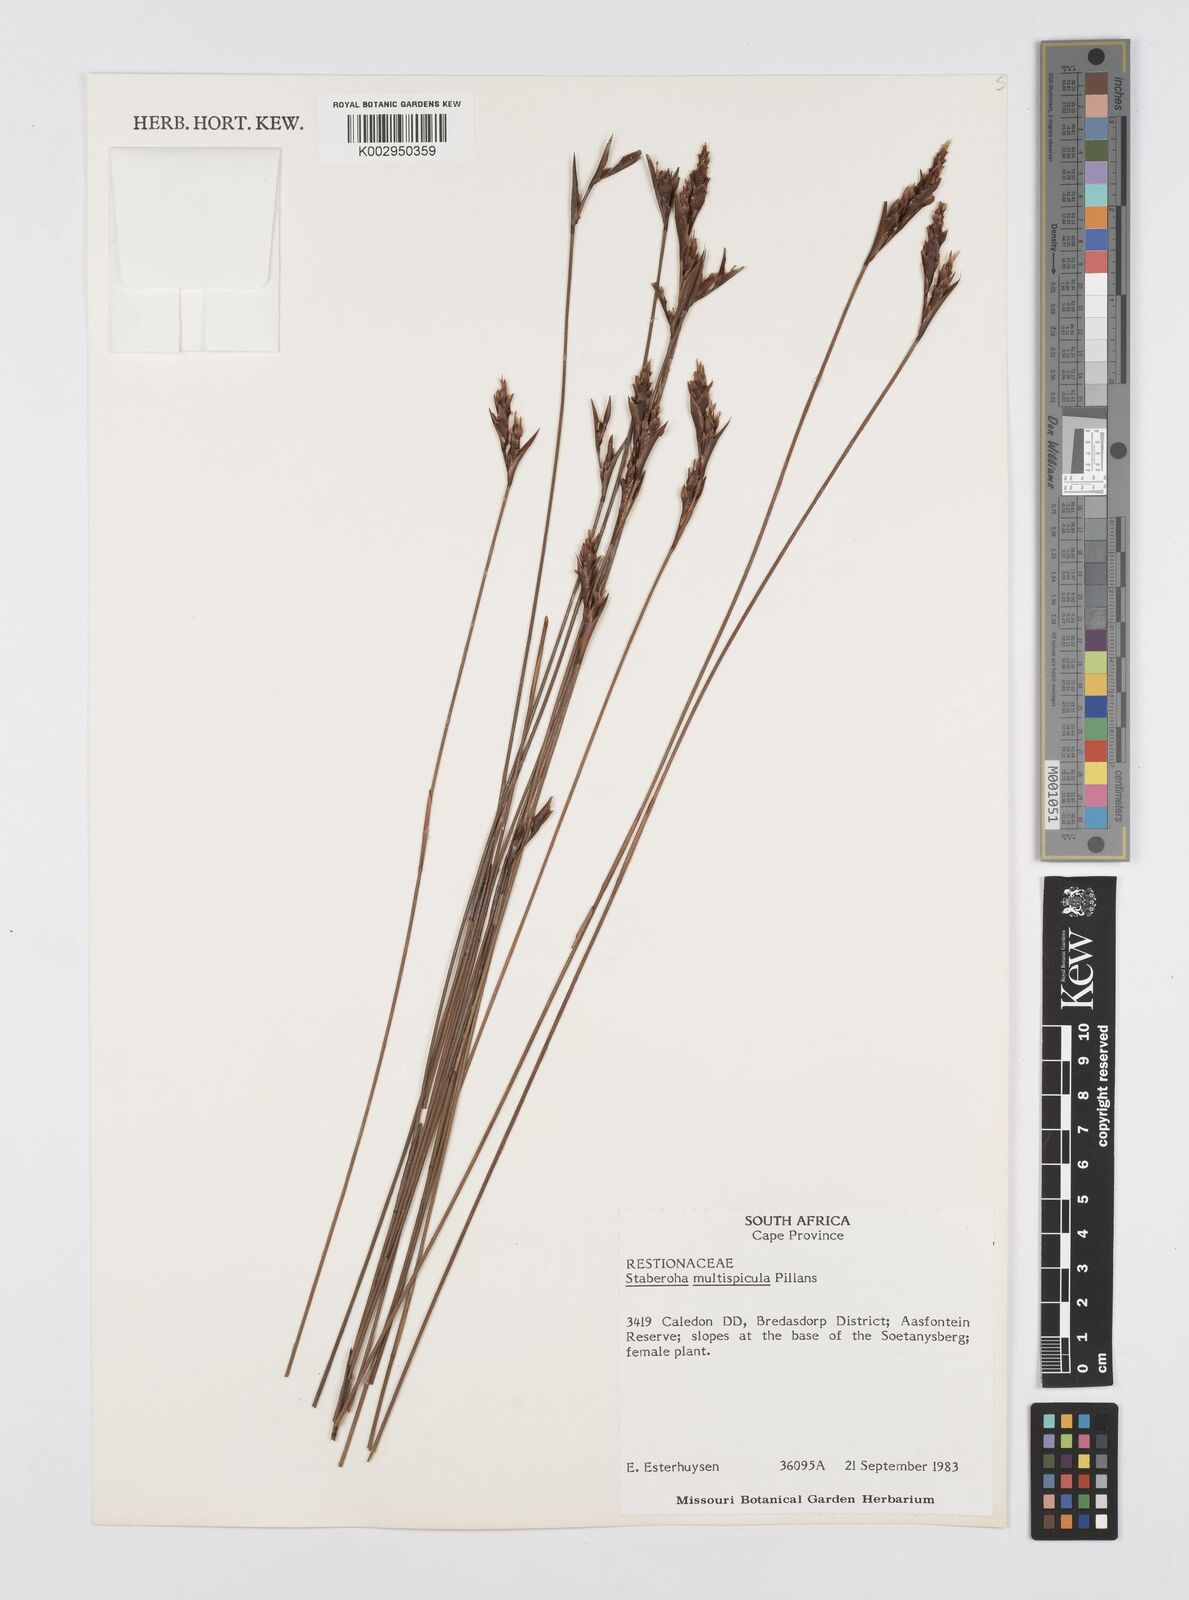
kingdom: Plantae
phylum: Tracheophyta
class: Liliopsida
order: Poales
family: Restionaceae
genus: Staberoha
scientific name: Staberoha multispicula
